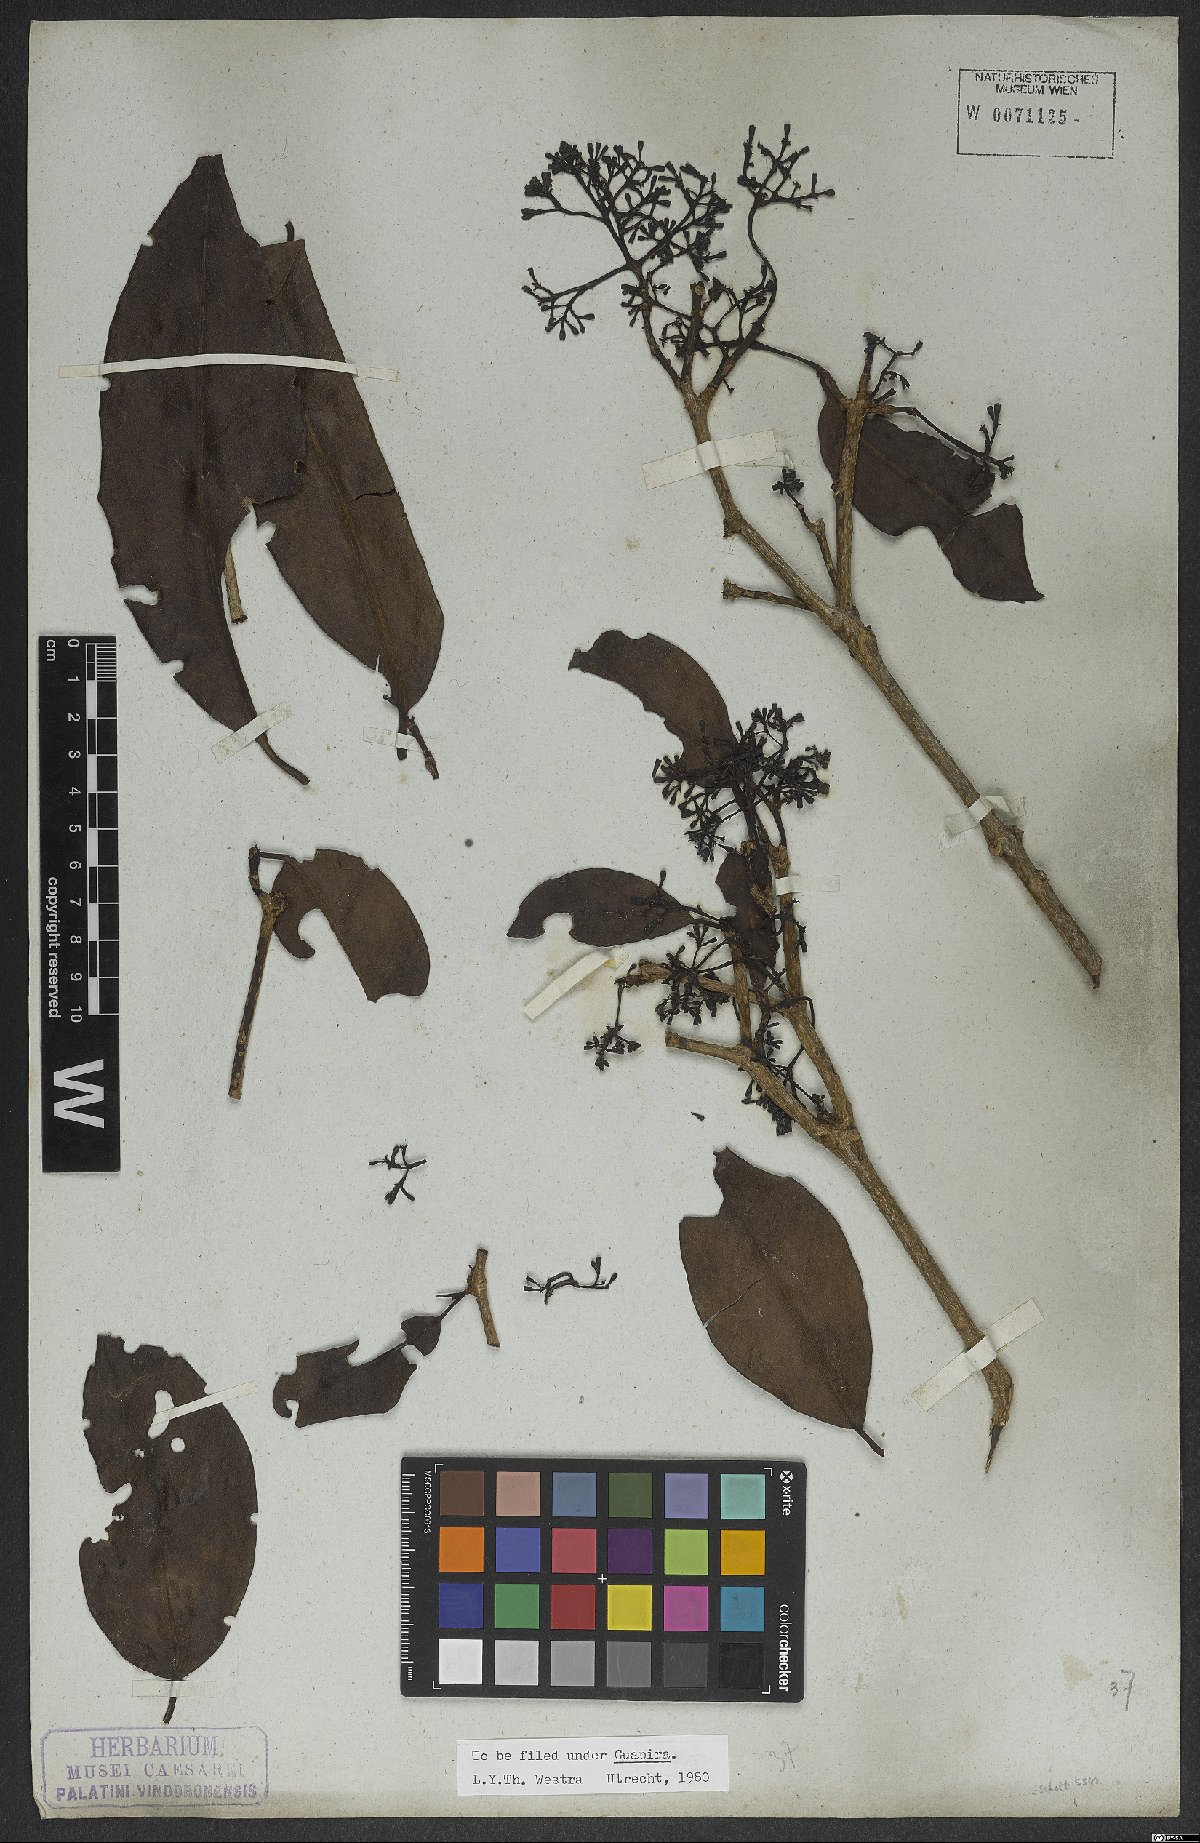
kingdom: Plantae
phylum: Tracheophyta
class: Magnoliopsida
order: Caryophyllales
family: Nyctaginaceae
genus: Guapira
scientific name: Guapira
